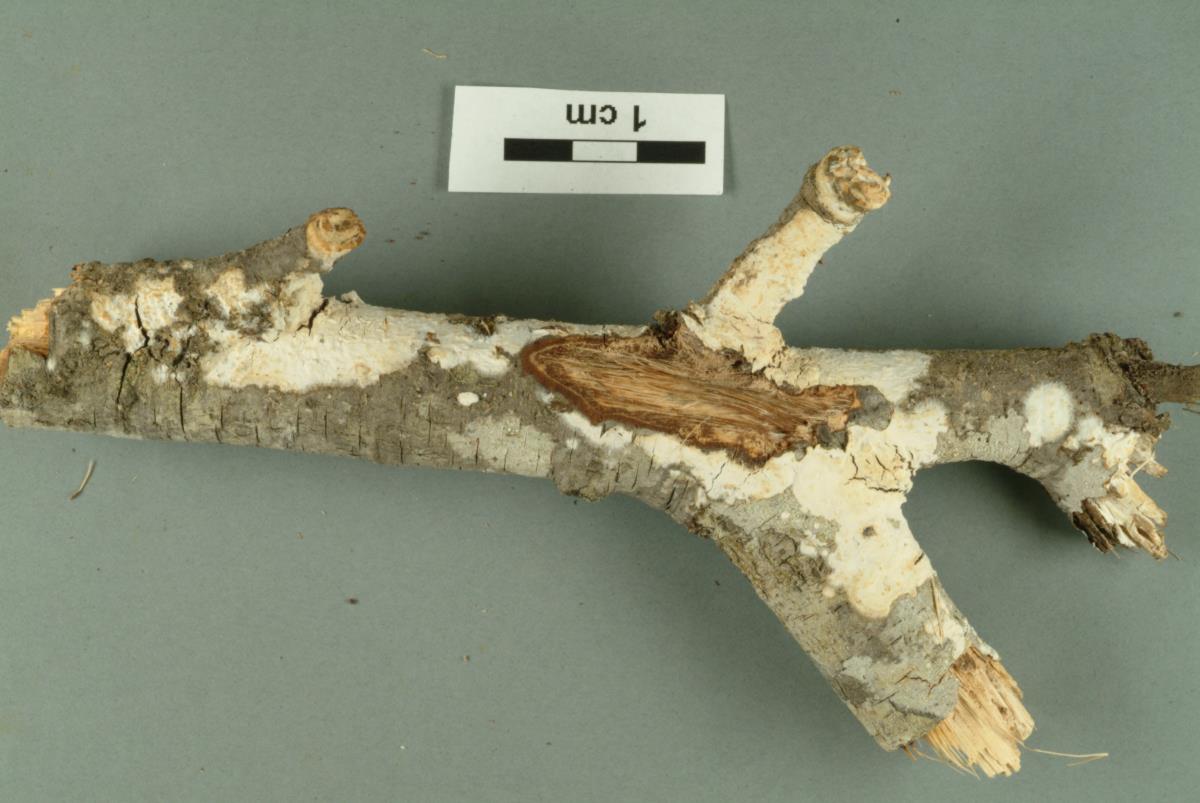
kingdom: Fungi
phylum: Basidiomycota
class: Agaricomycetes
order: Polyporales
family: Hyphodermataceae
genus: Hyphoderma
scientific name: Hyphoderma litschaueri
